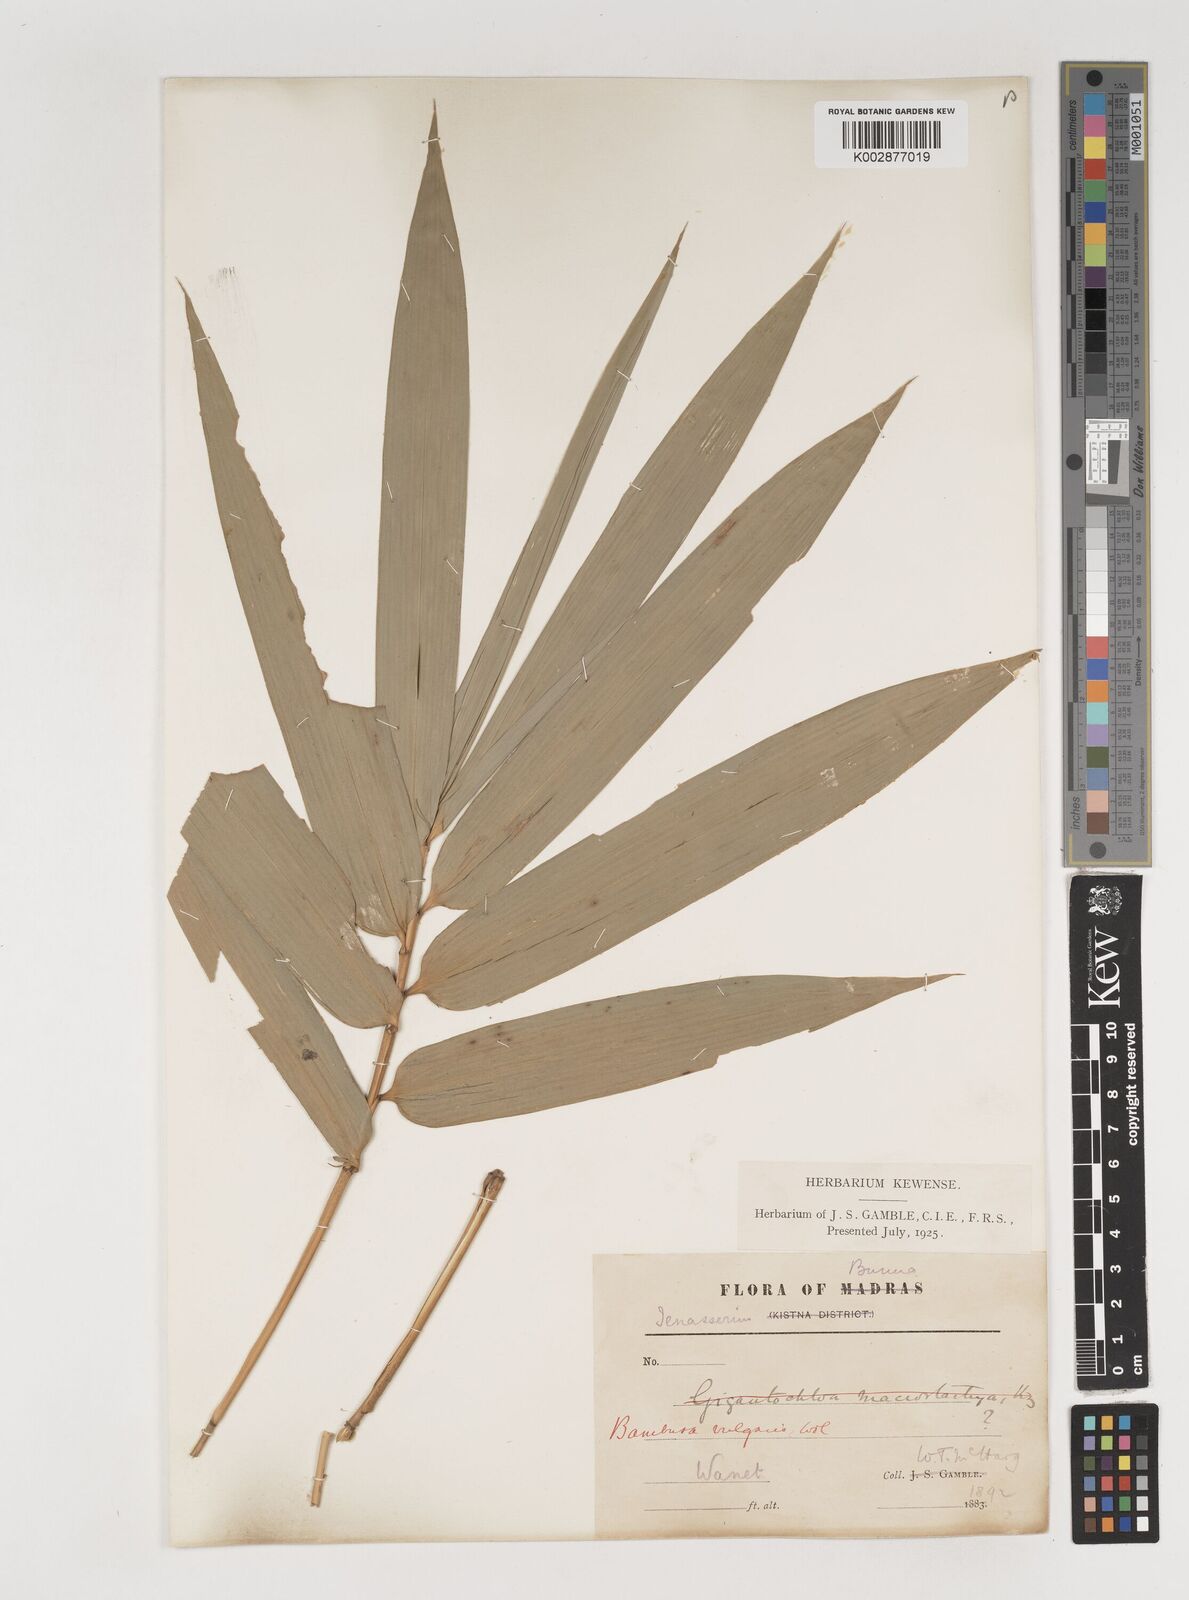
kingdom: Plantae
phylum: Tracheophyta
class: Liliopsida
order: Poales
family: Poaceae
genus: Bambusa
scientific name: Bambusa vulgaris
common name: Common bamboo
